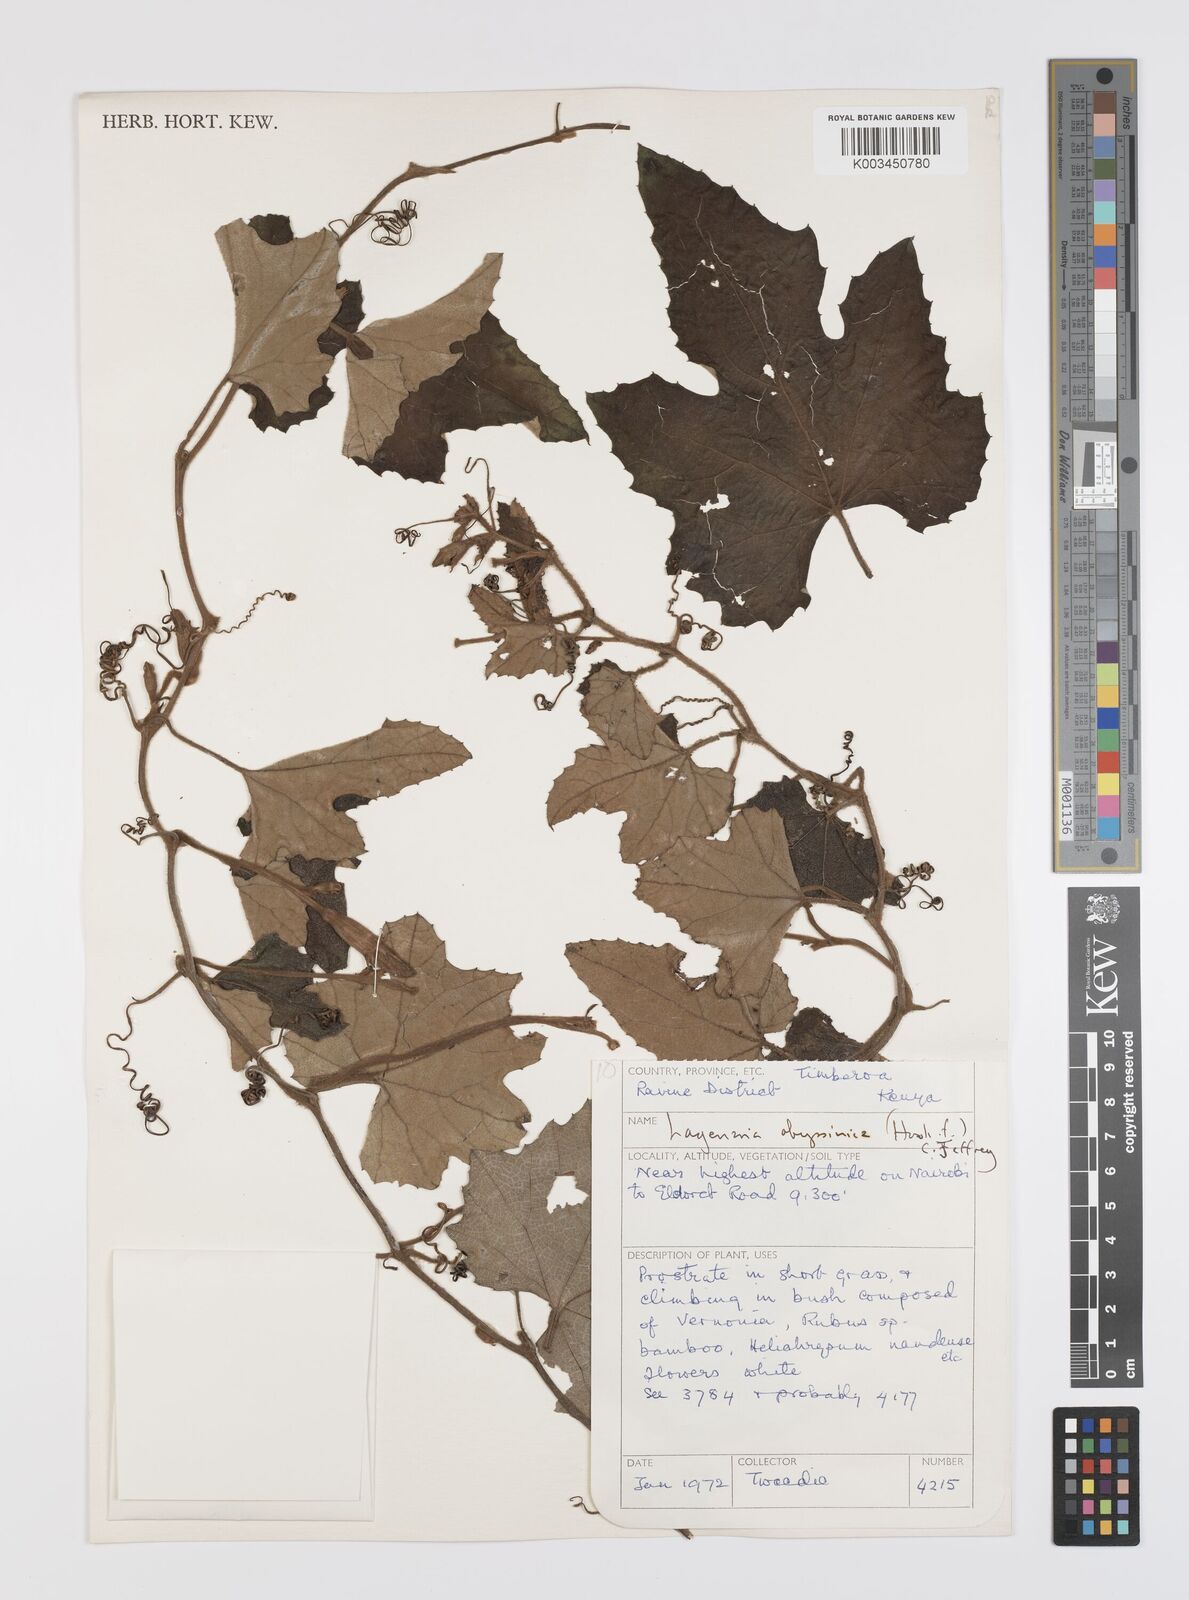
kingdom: Plantae
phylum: Tracheophyta
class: Magnoliopsida
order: Cucurbitales
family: Cucurbitaceae
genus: Lagenaria
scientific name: Lagenaria abyssinica
